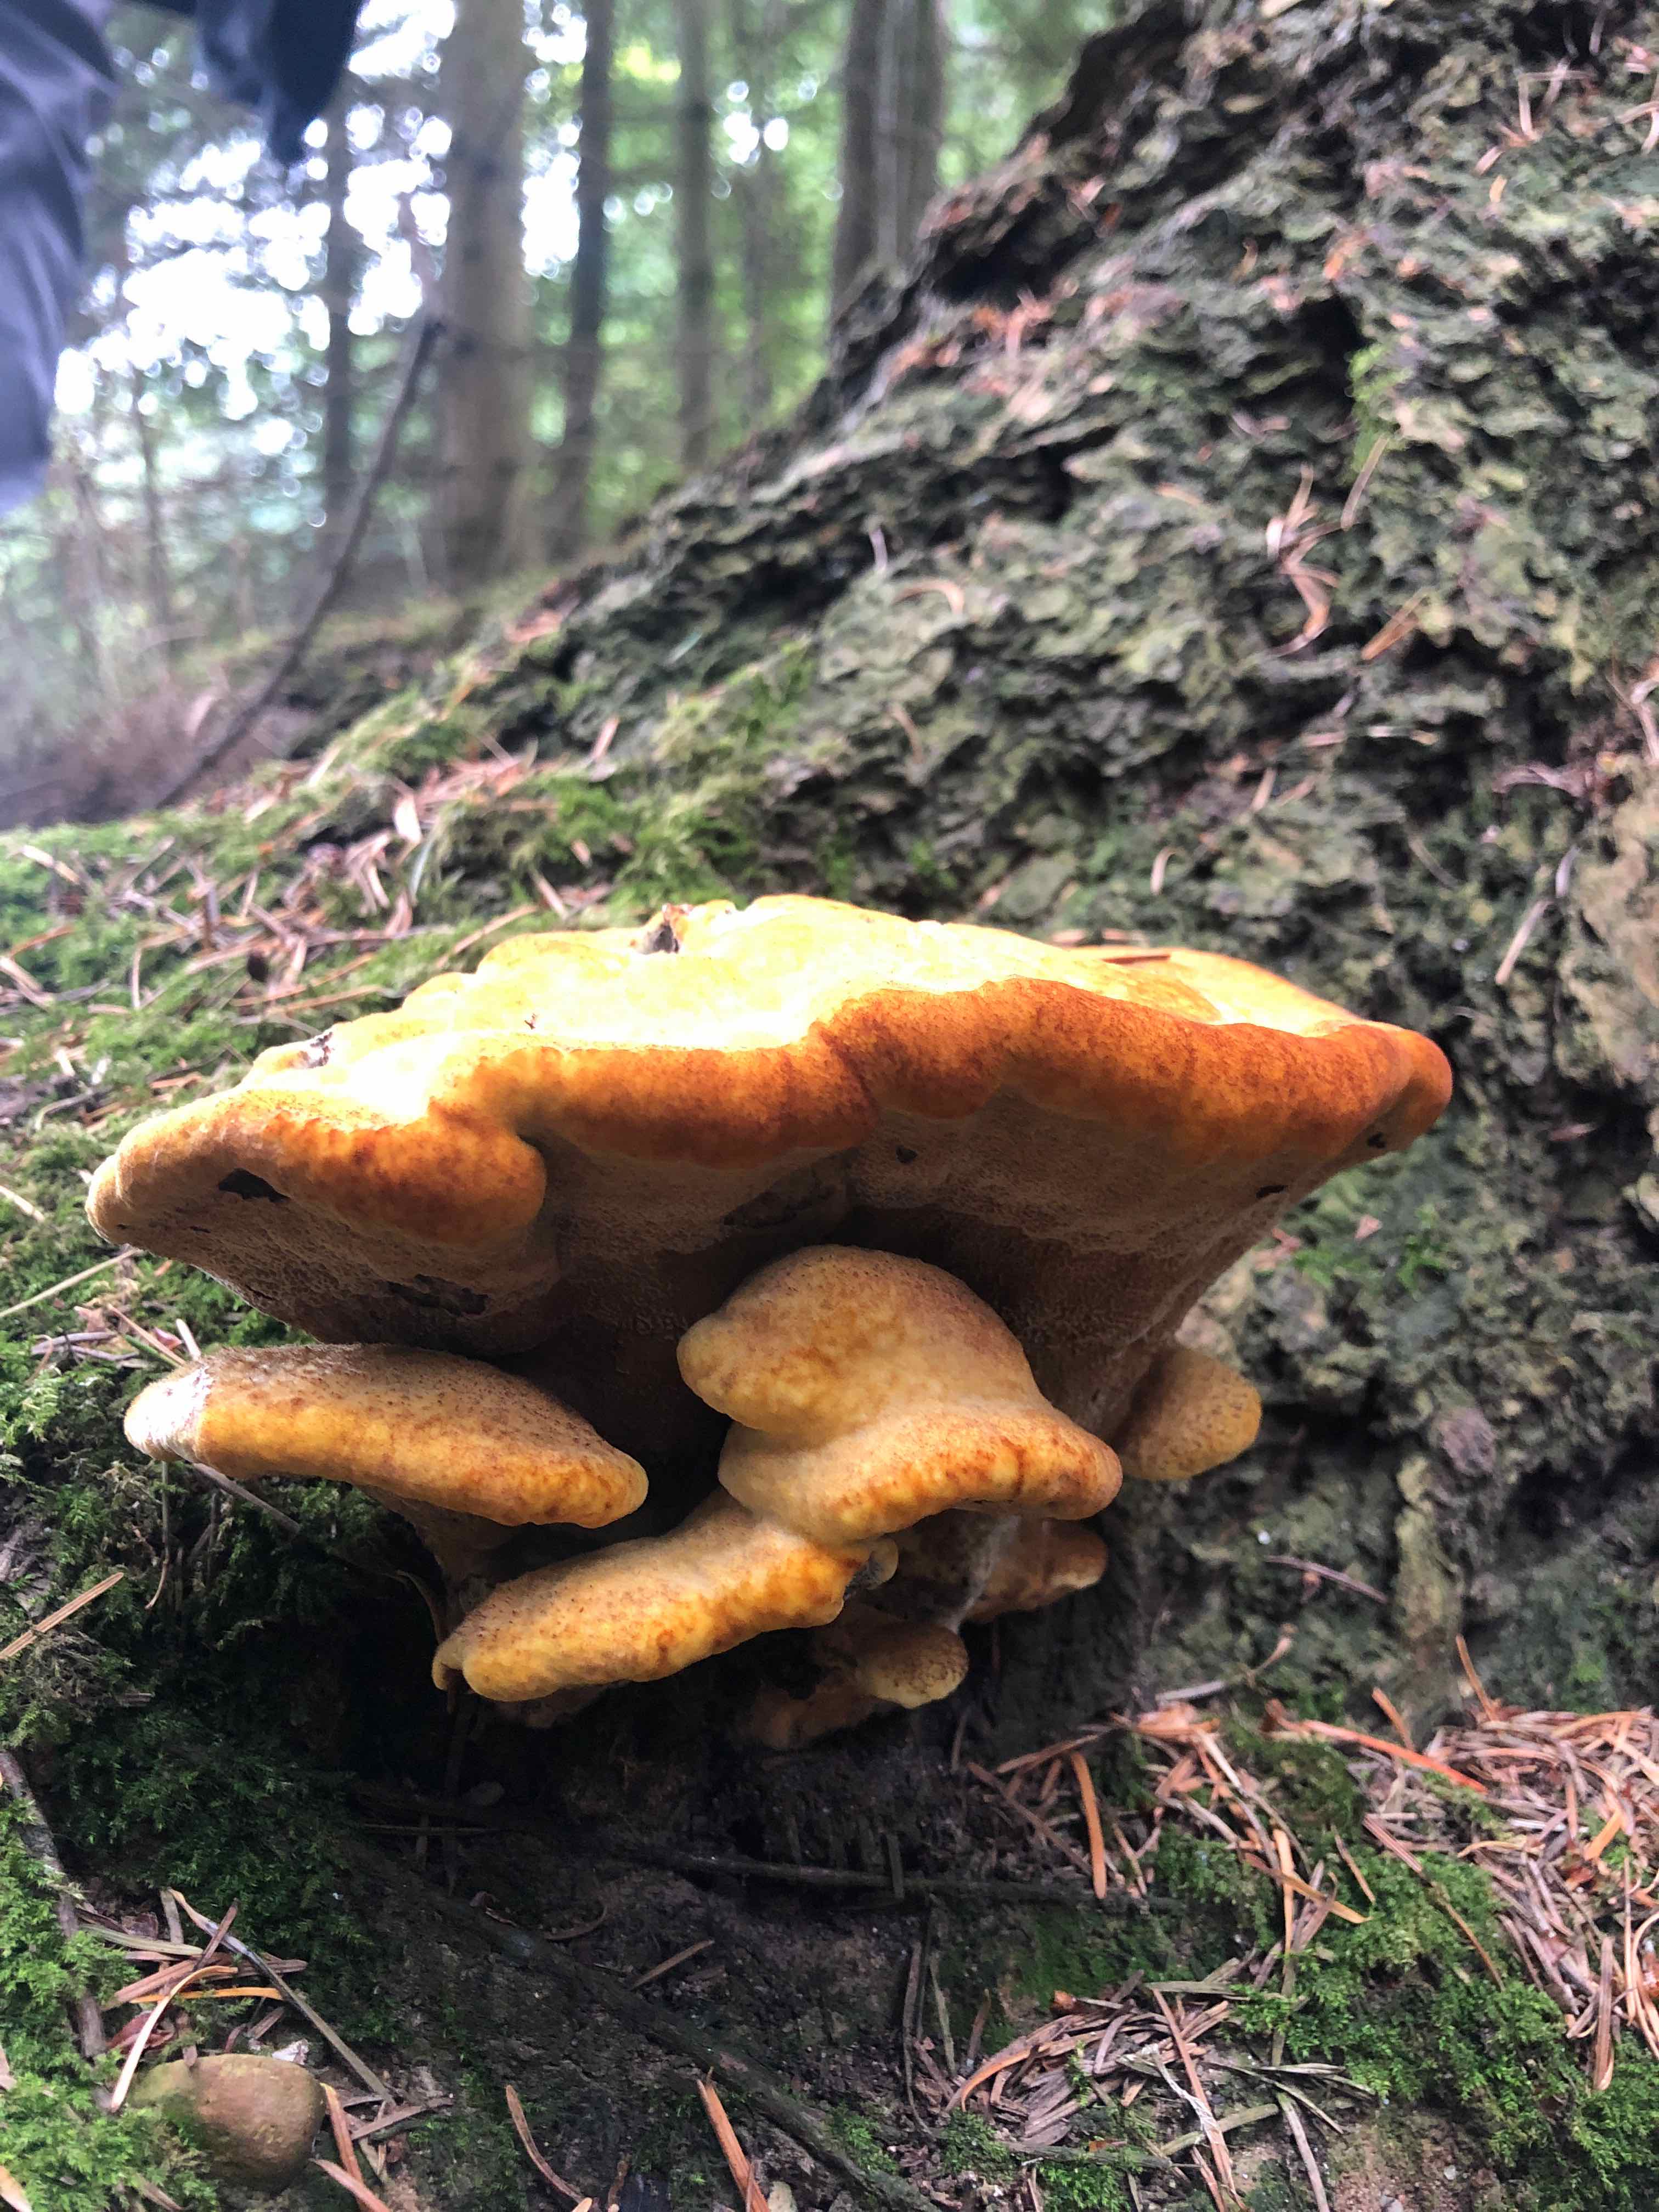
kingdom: Fungi
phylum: Basidiomycota
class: Agaricomycetes
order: Polyporales
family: Laetiporaceae
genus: Phaeolus
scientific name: Phaeolus schweinitzii
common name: brunporesvamp
